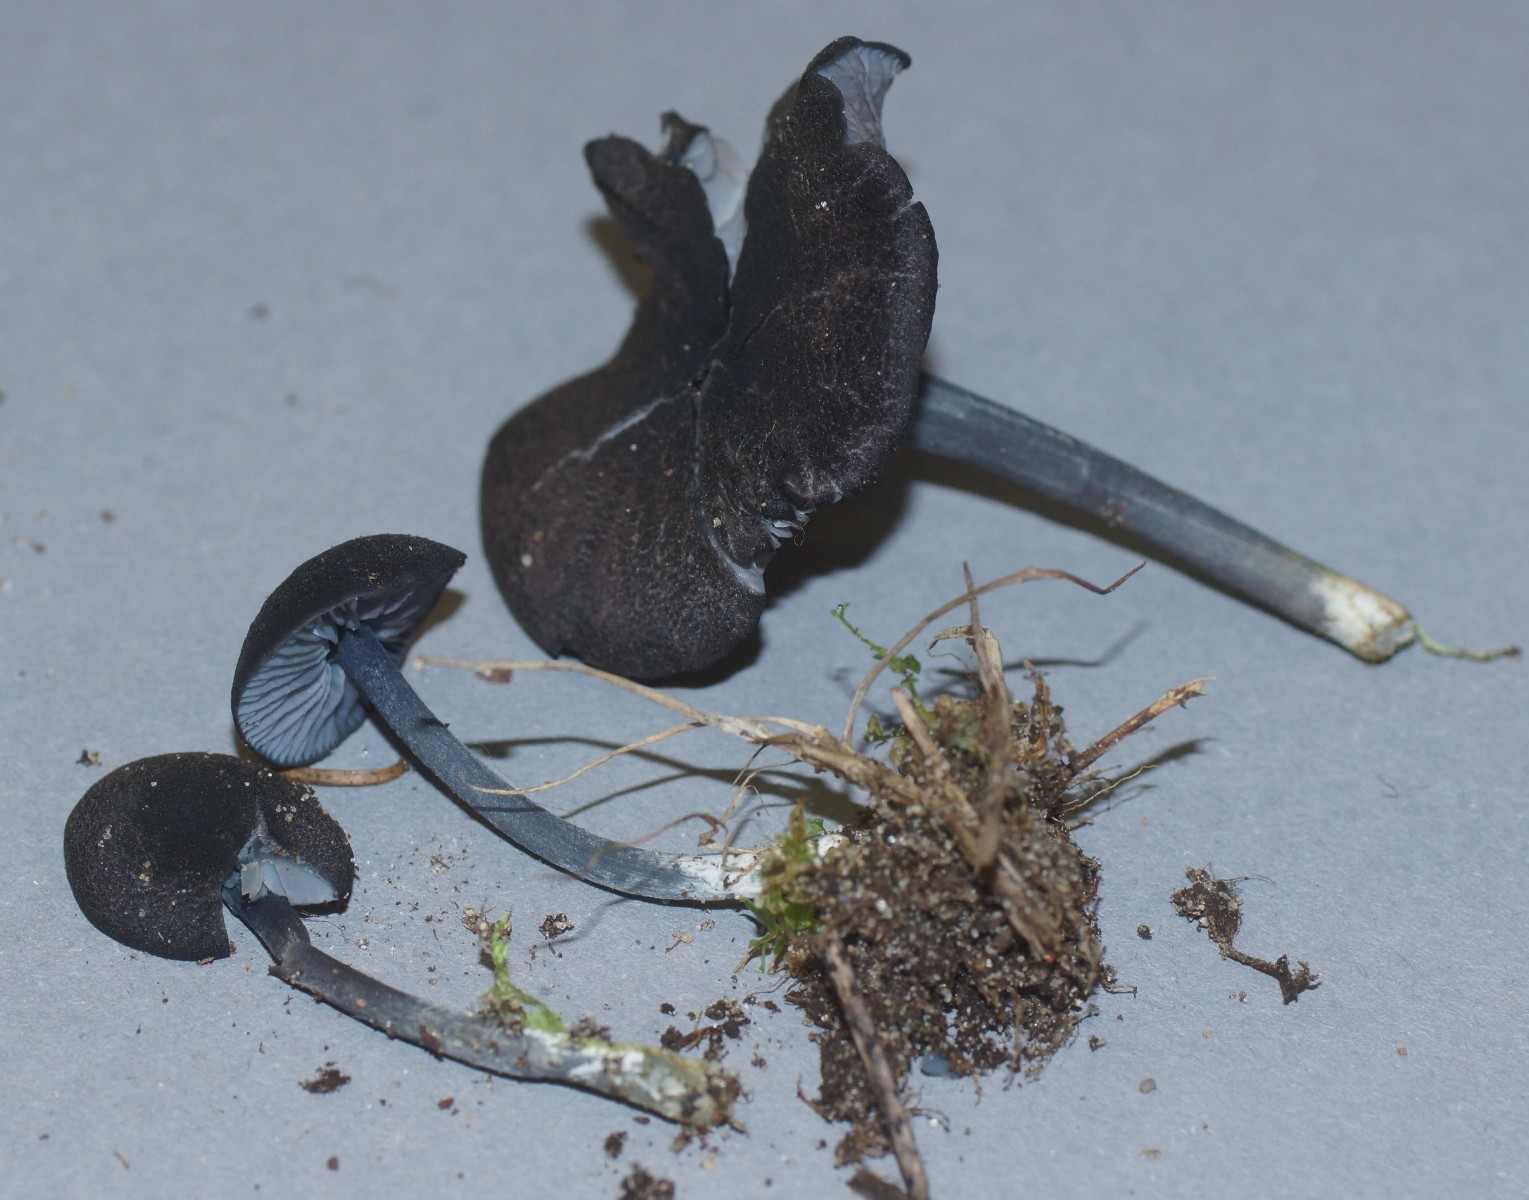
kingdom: Fungi
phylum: Basidiomycota
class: Agaricomycetes
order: Agaricales
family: Entolomataceae
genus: Entoloma
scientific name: Entoloma chalybeum
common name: blåbladet rødblad
